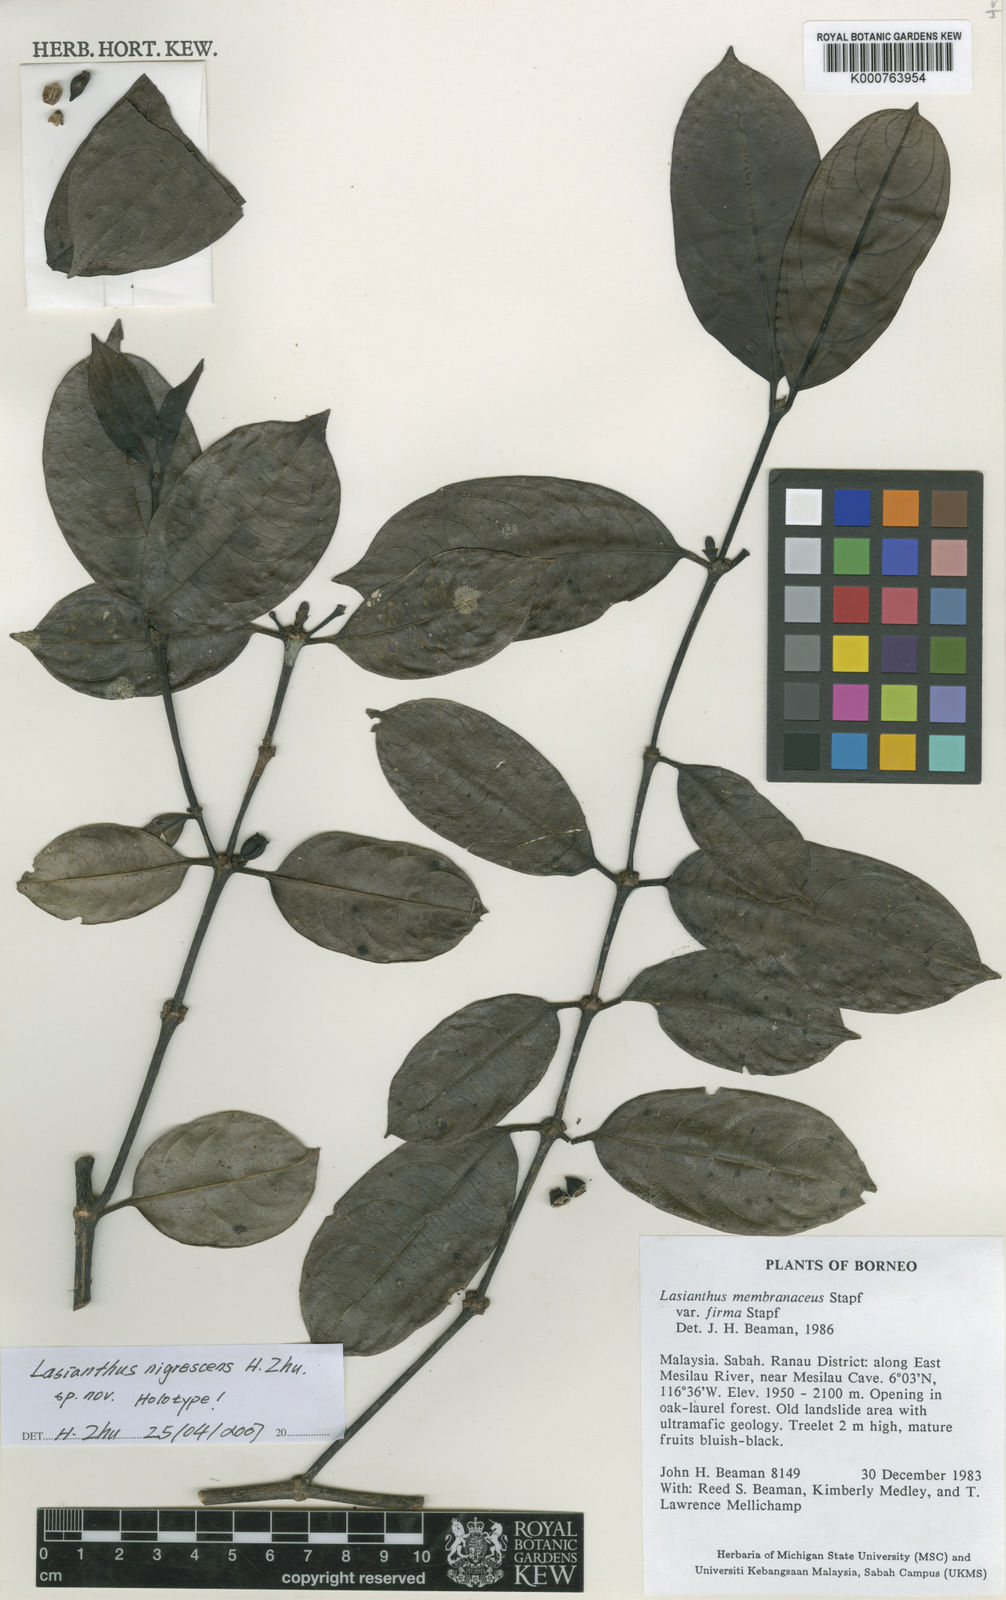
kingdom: Plantae
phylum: Tracheophyta
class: Magnoliopsida
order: Gentianales
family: Rubiaceae
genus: Lasianthus
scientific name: Lasianthus nigrescens
